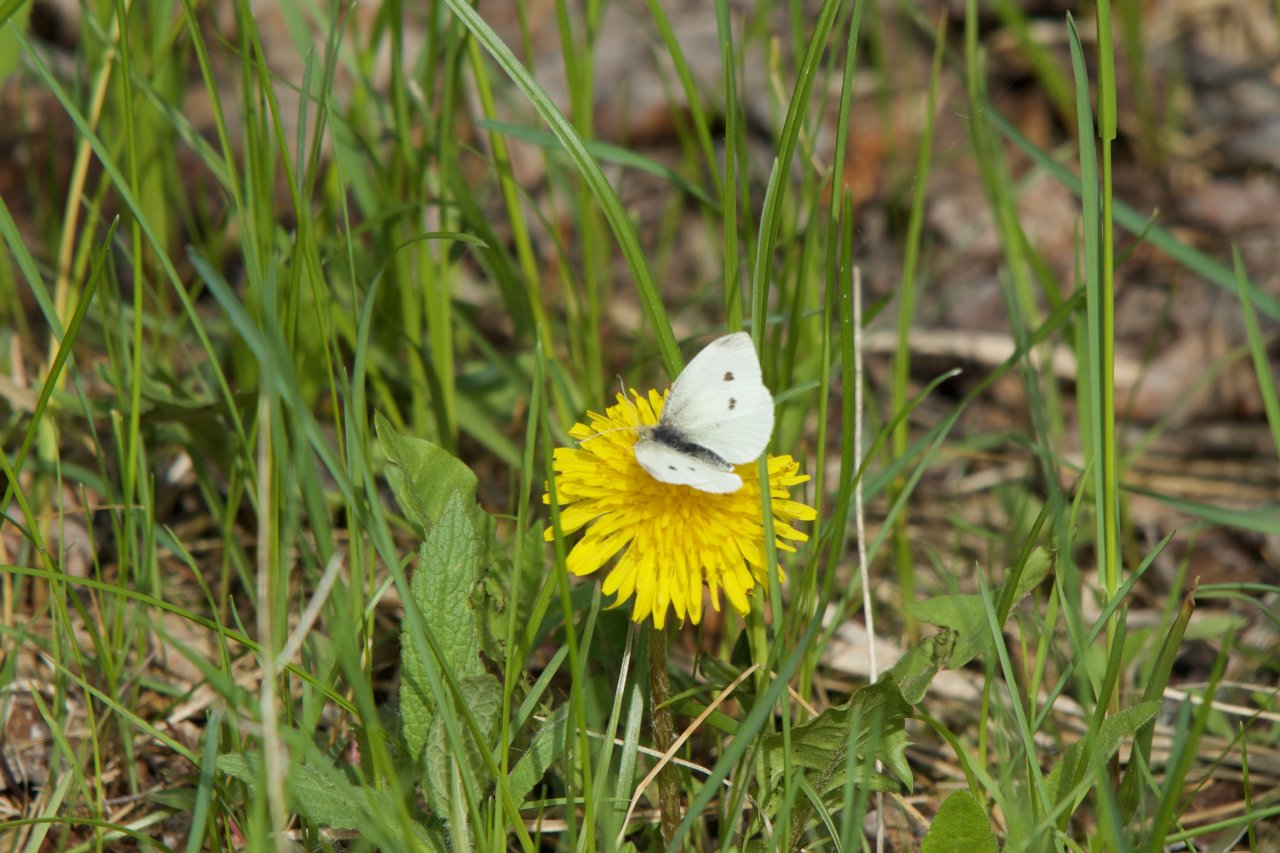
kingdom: Animalia
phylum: Arthropoda
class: Insecta
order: Lepidoptera
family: Pieridae
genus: Pieris
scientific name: Pieris rapae
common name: Cabbage White
